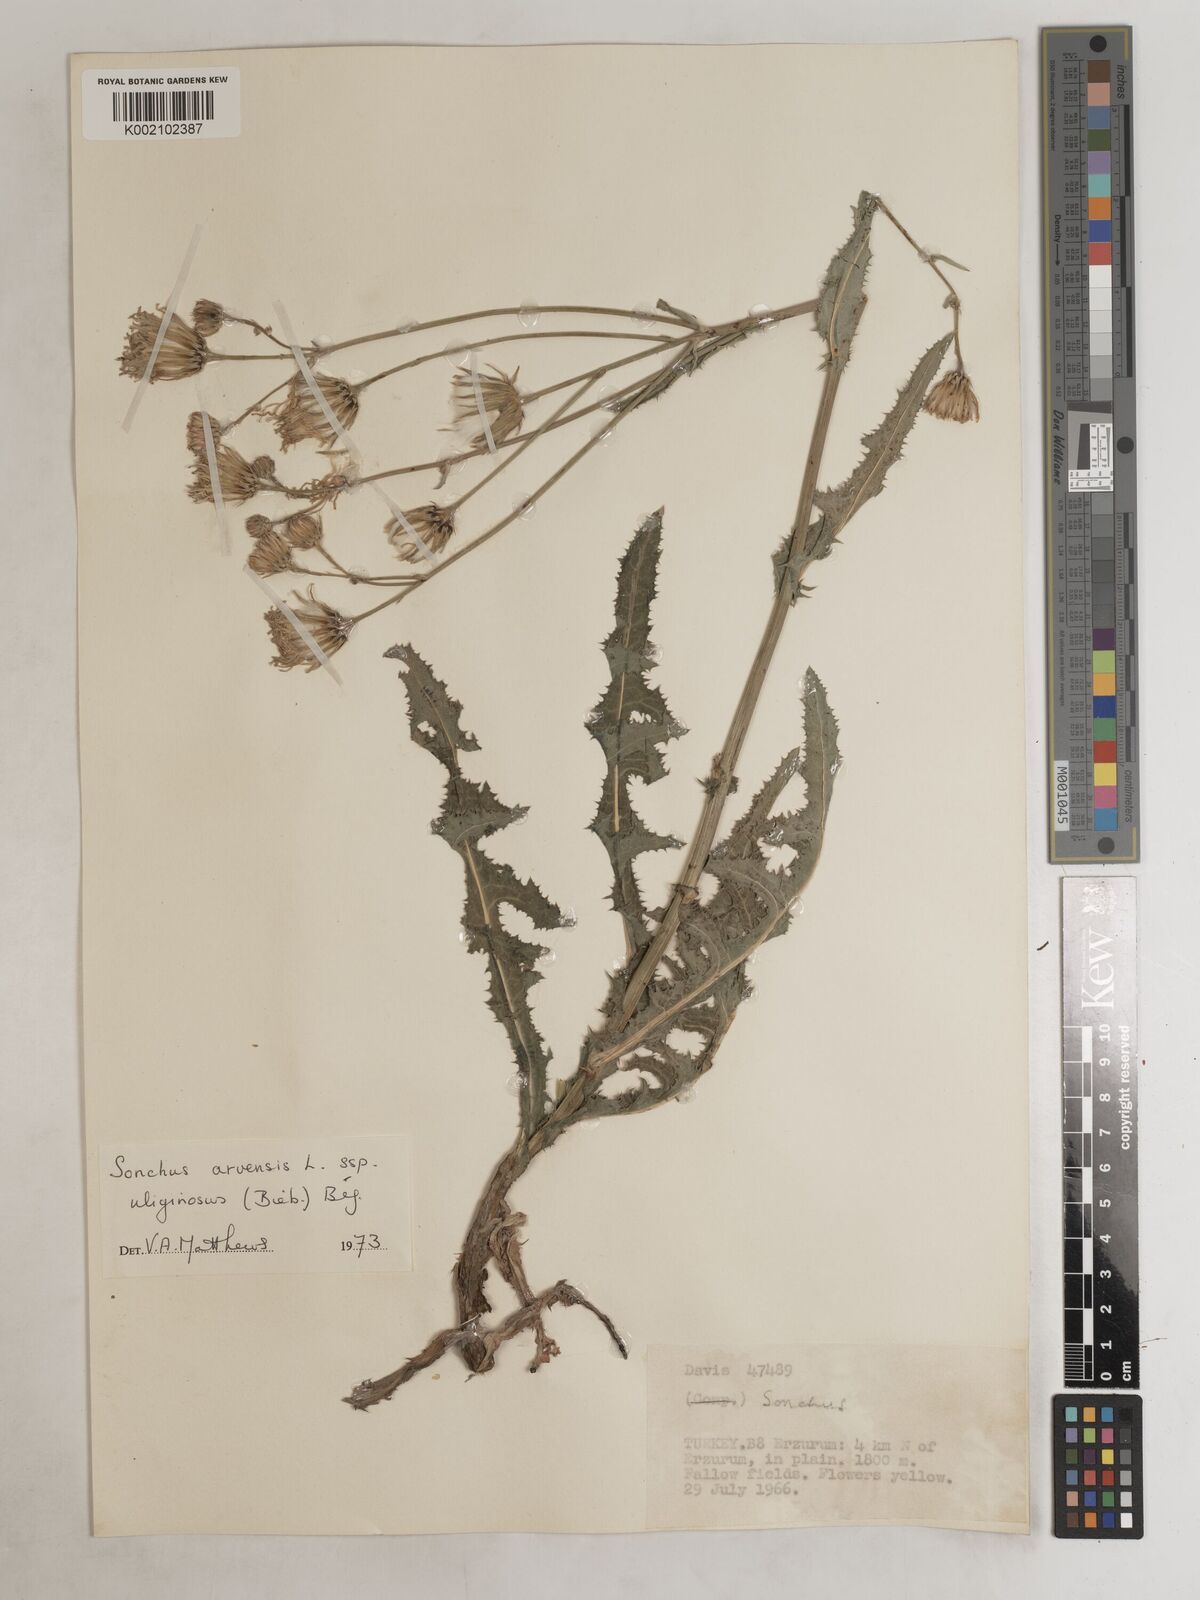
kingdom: Plantae
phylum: Tracheophyta
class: Magnoliopsida
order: Asterales
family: Asteraceae
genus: Sonchus
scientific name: Sonchus arvensis
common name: Perennial sow-thistle
